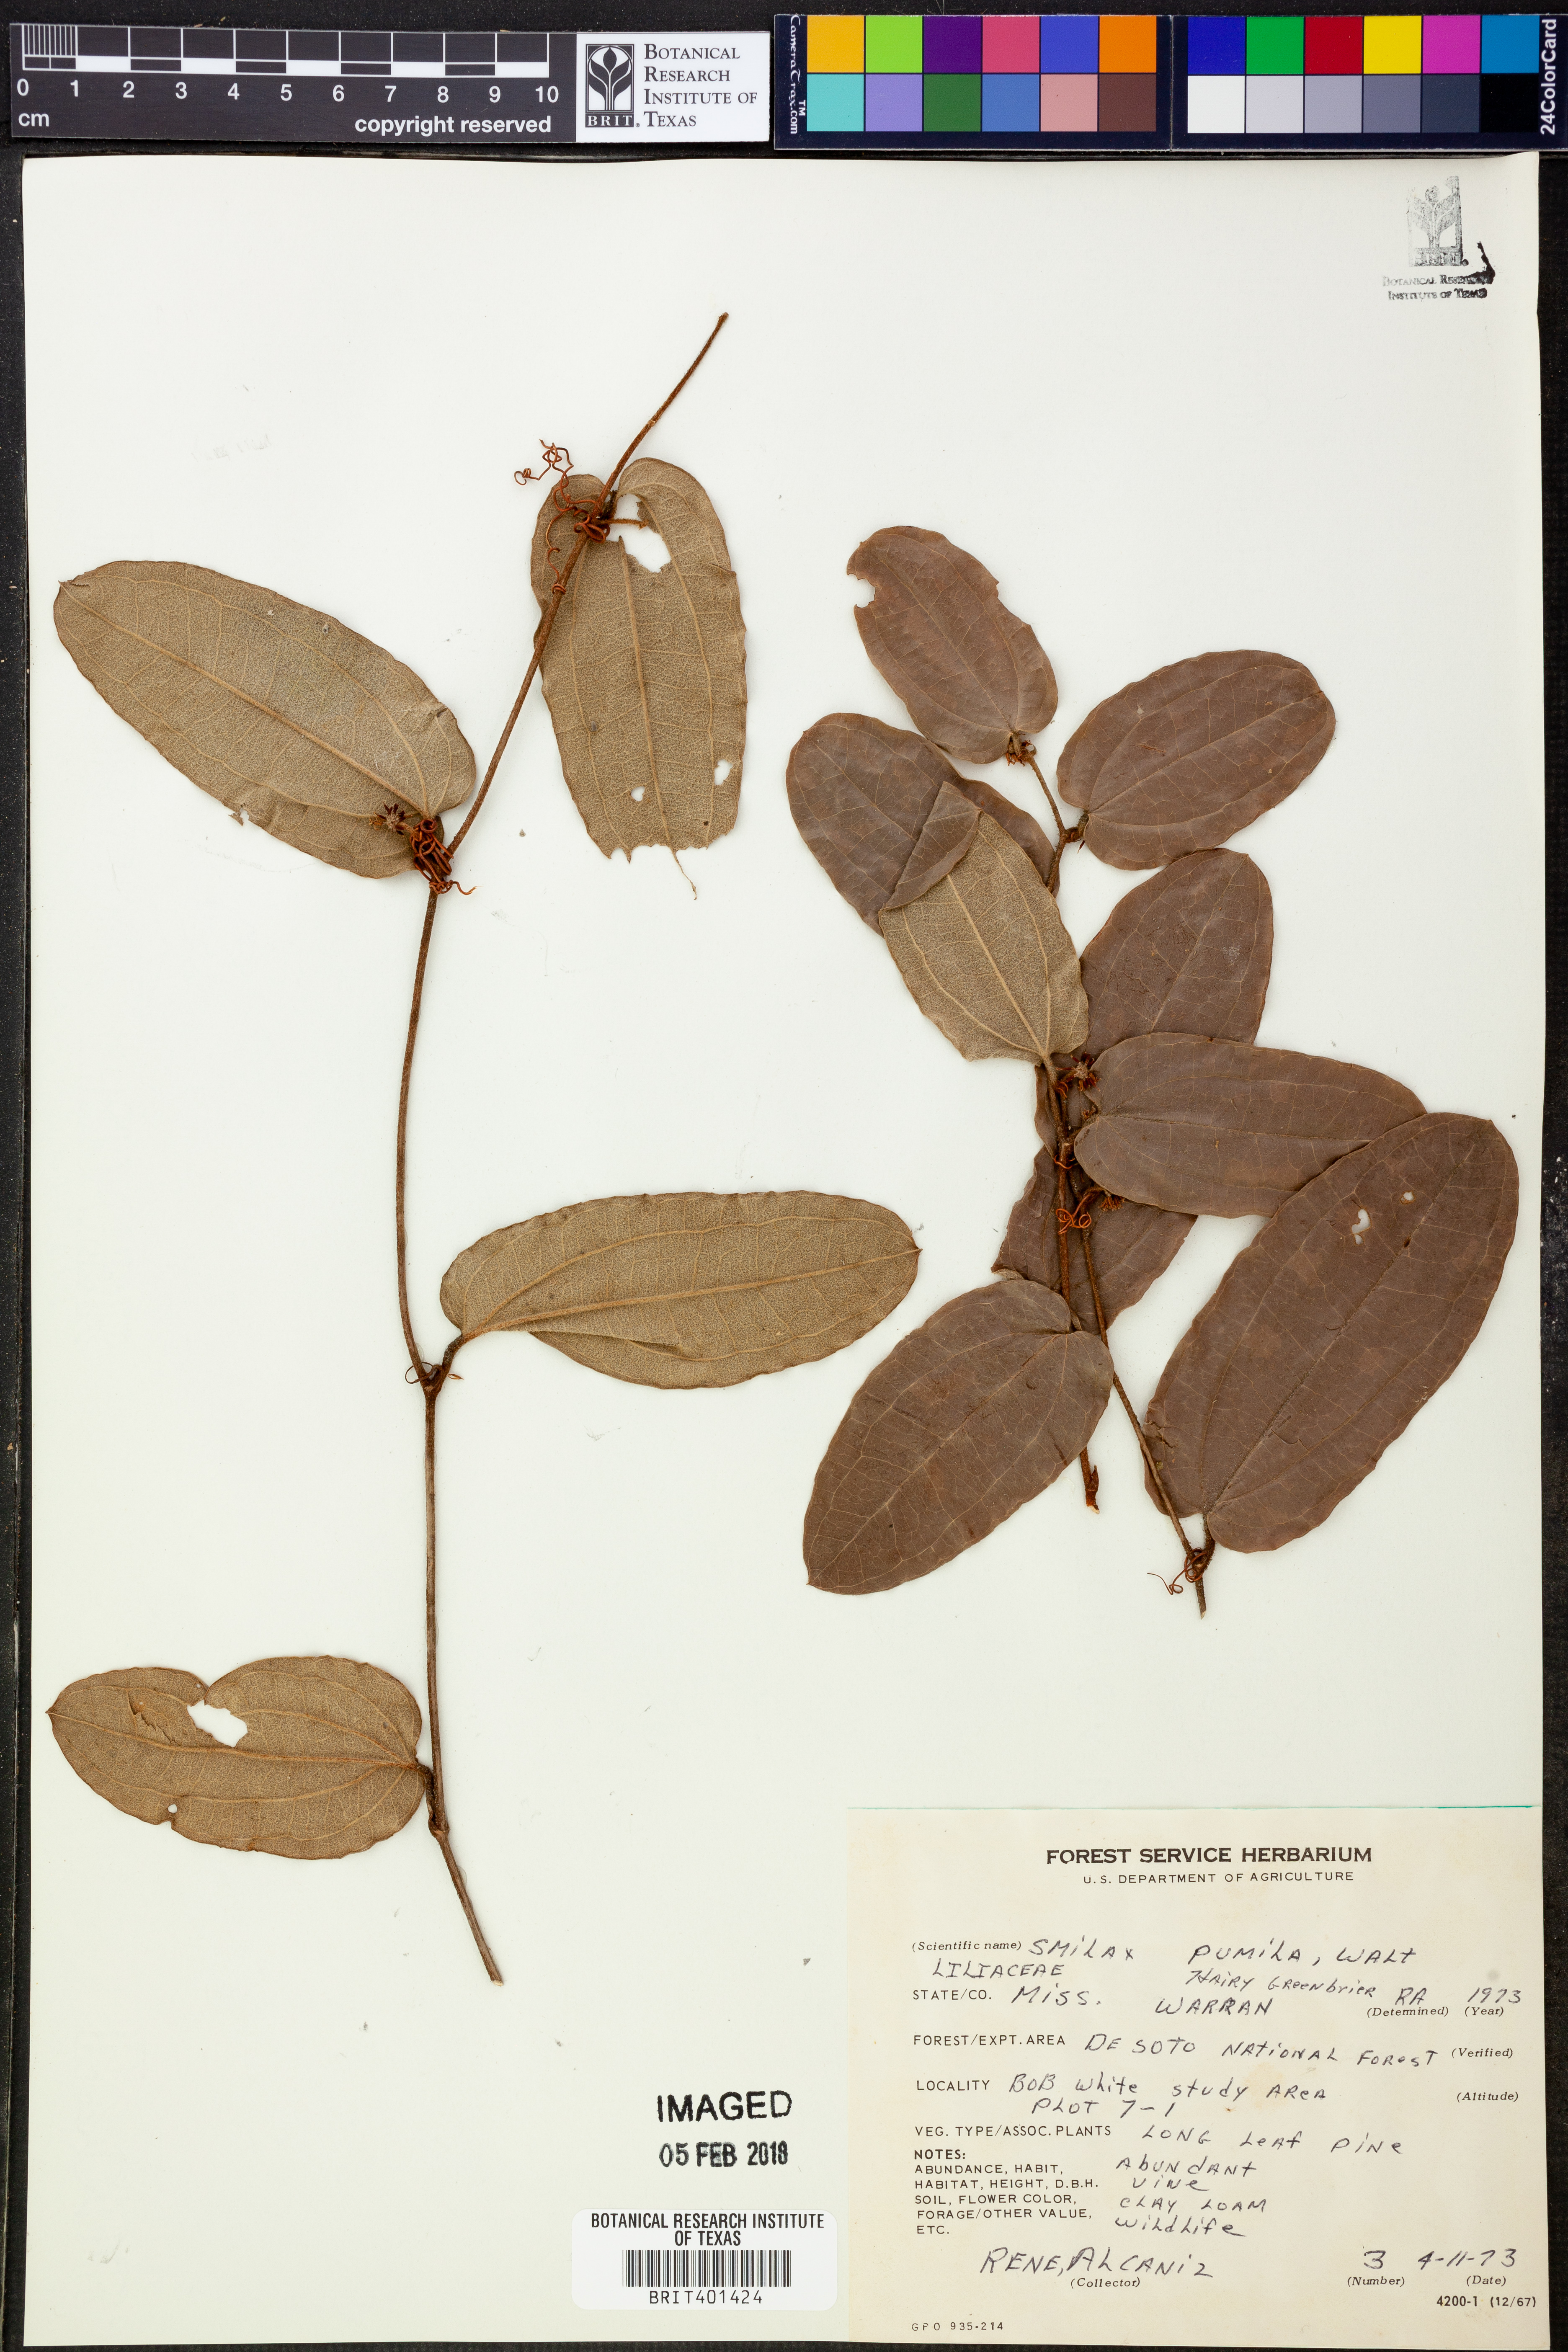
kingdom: Plantae
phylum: Tracheophyta
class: Liliopsida
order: Liliales
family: Smilacaceae
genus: Smilax
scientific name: Smilax pumila
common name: Sarsaparilla-vine
